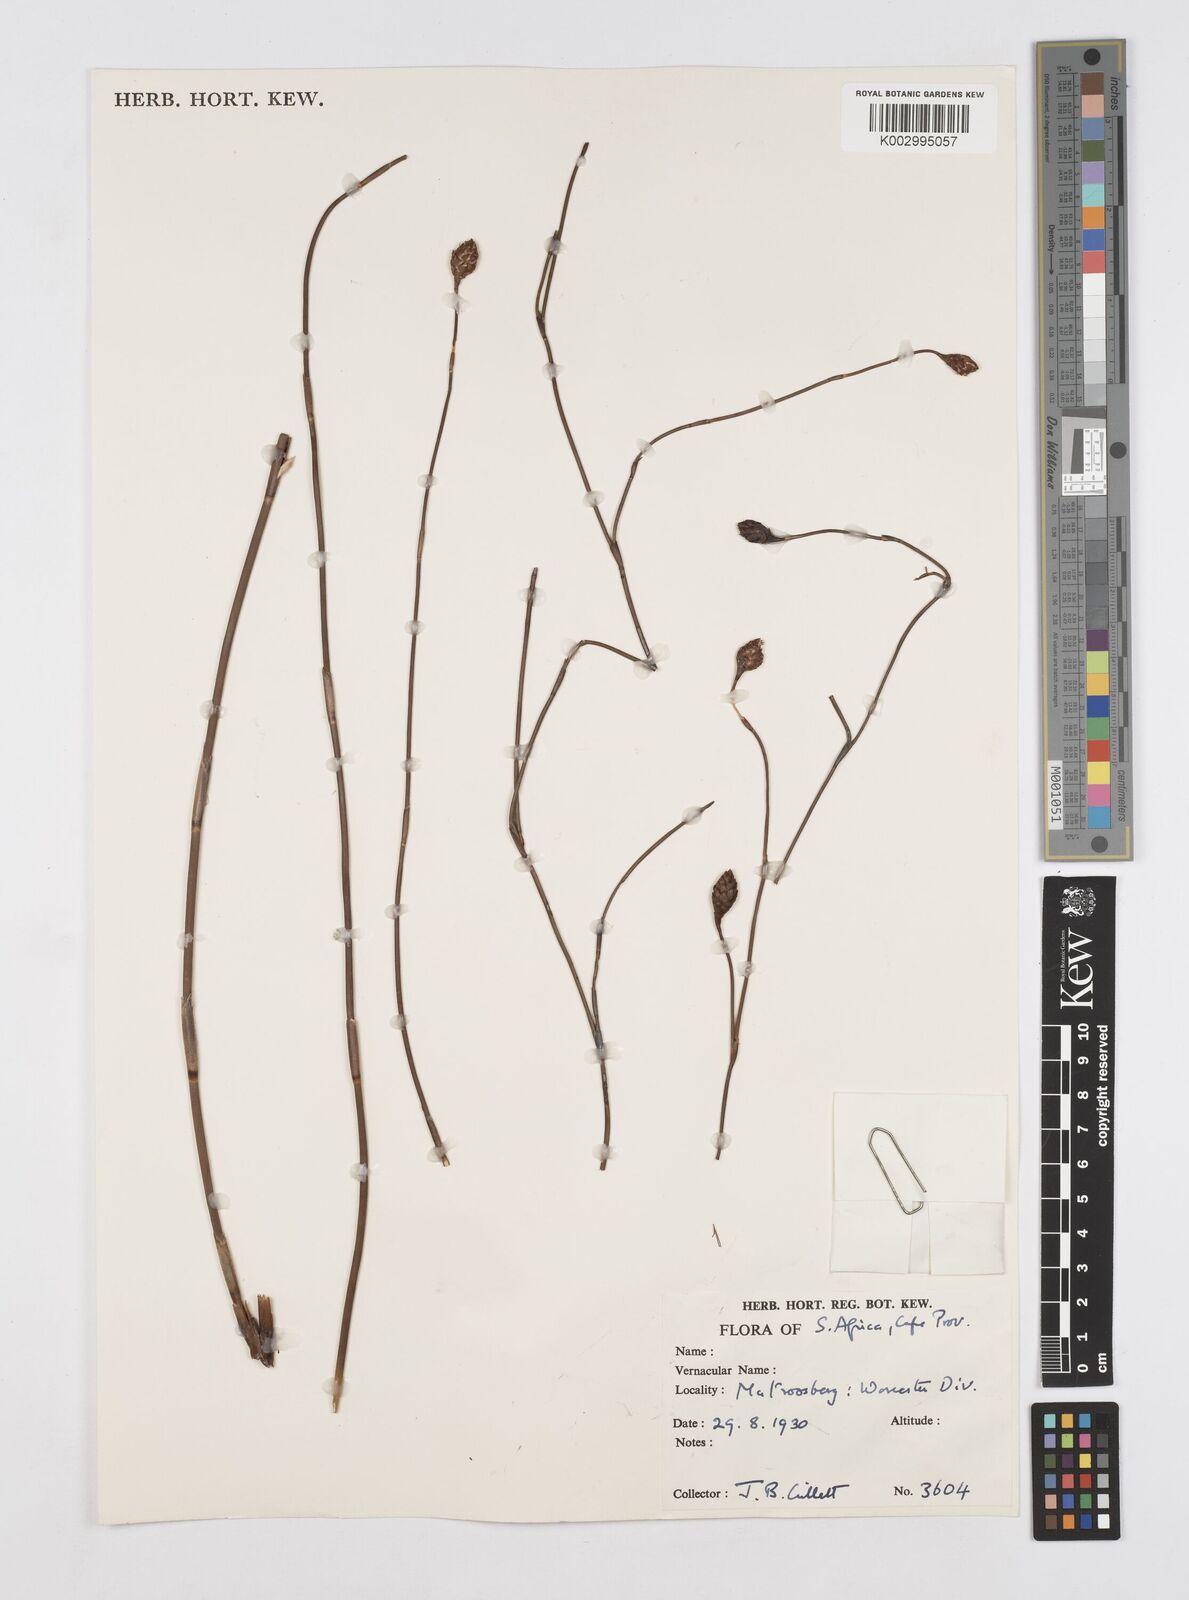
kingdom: Plantae
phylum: Tracheophyta
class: Liliopsida
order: Poales
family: Restionaceae
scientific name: Restionaceae
